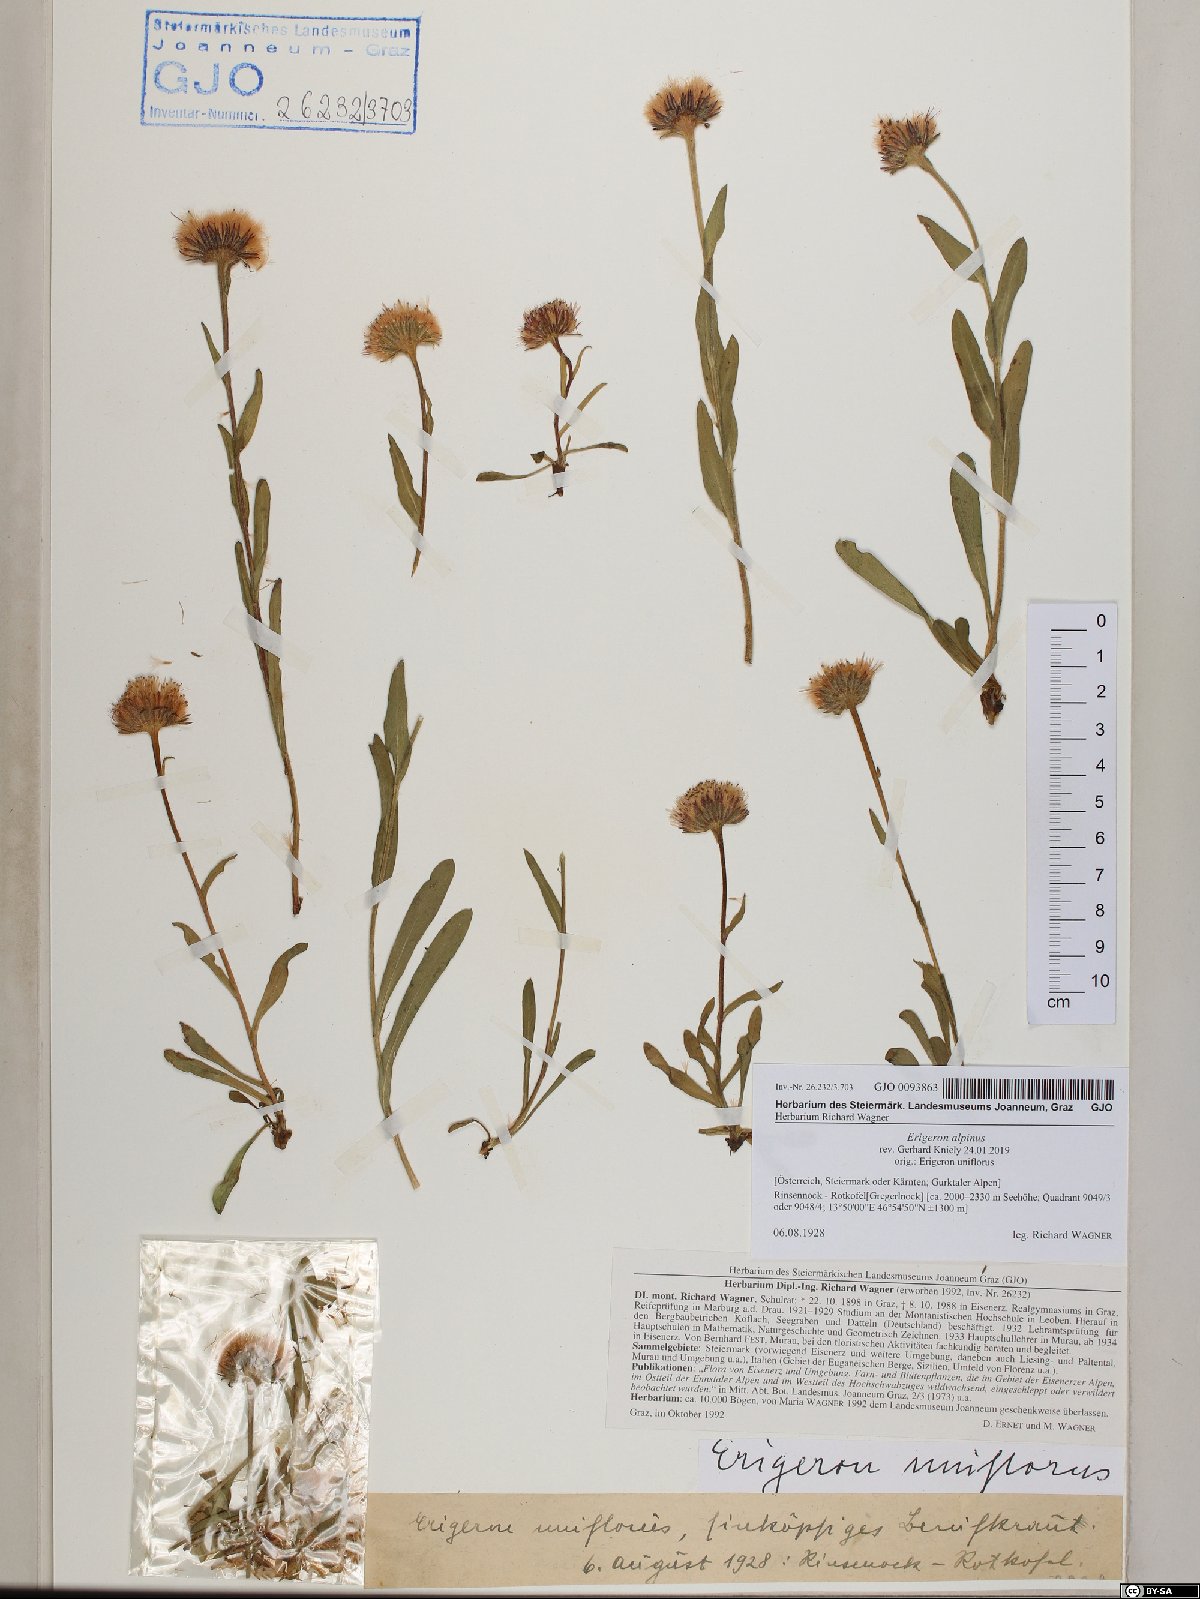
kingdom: Plantae
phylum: Tracheophyta
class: Magnoliopsida
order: Asterales
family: Asteraceae
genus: Erigeron
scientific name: Erigeron alpinus
